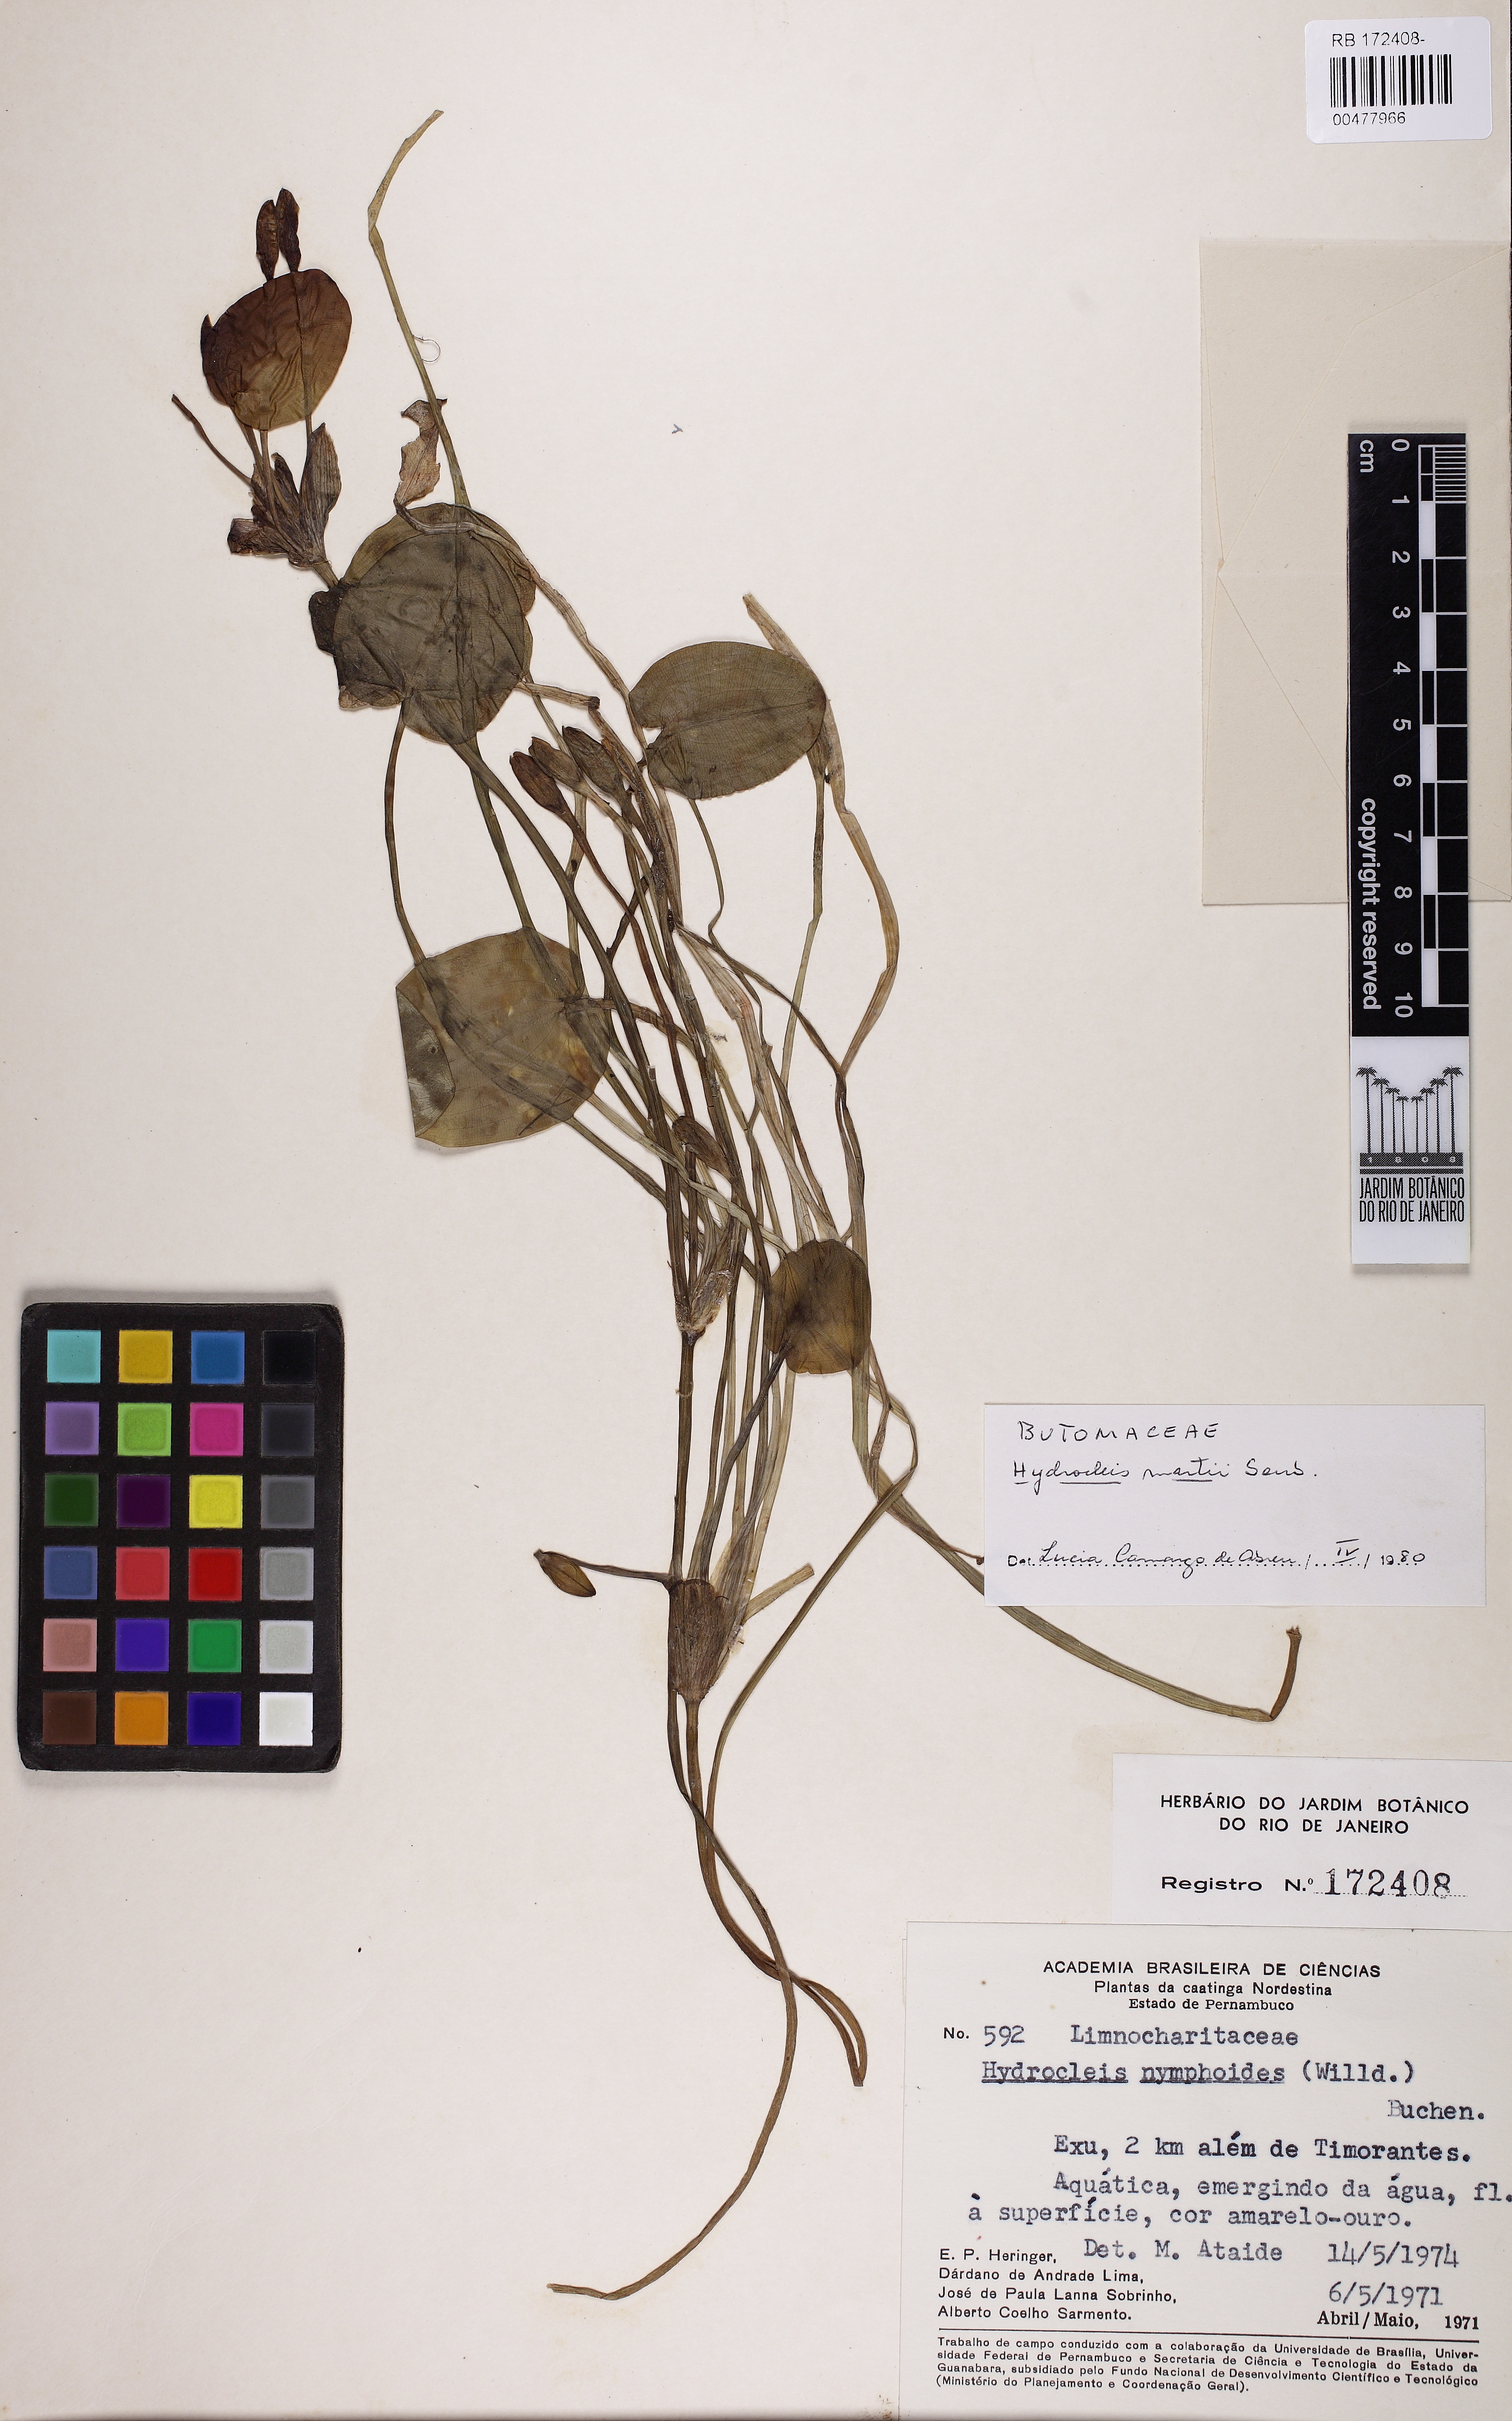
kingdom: Plantae
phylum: Tracheophyta
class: Liliopsida
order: Alismatales
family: Alismataceae
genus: Hydrocleys
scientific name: Hydrocleys martii
